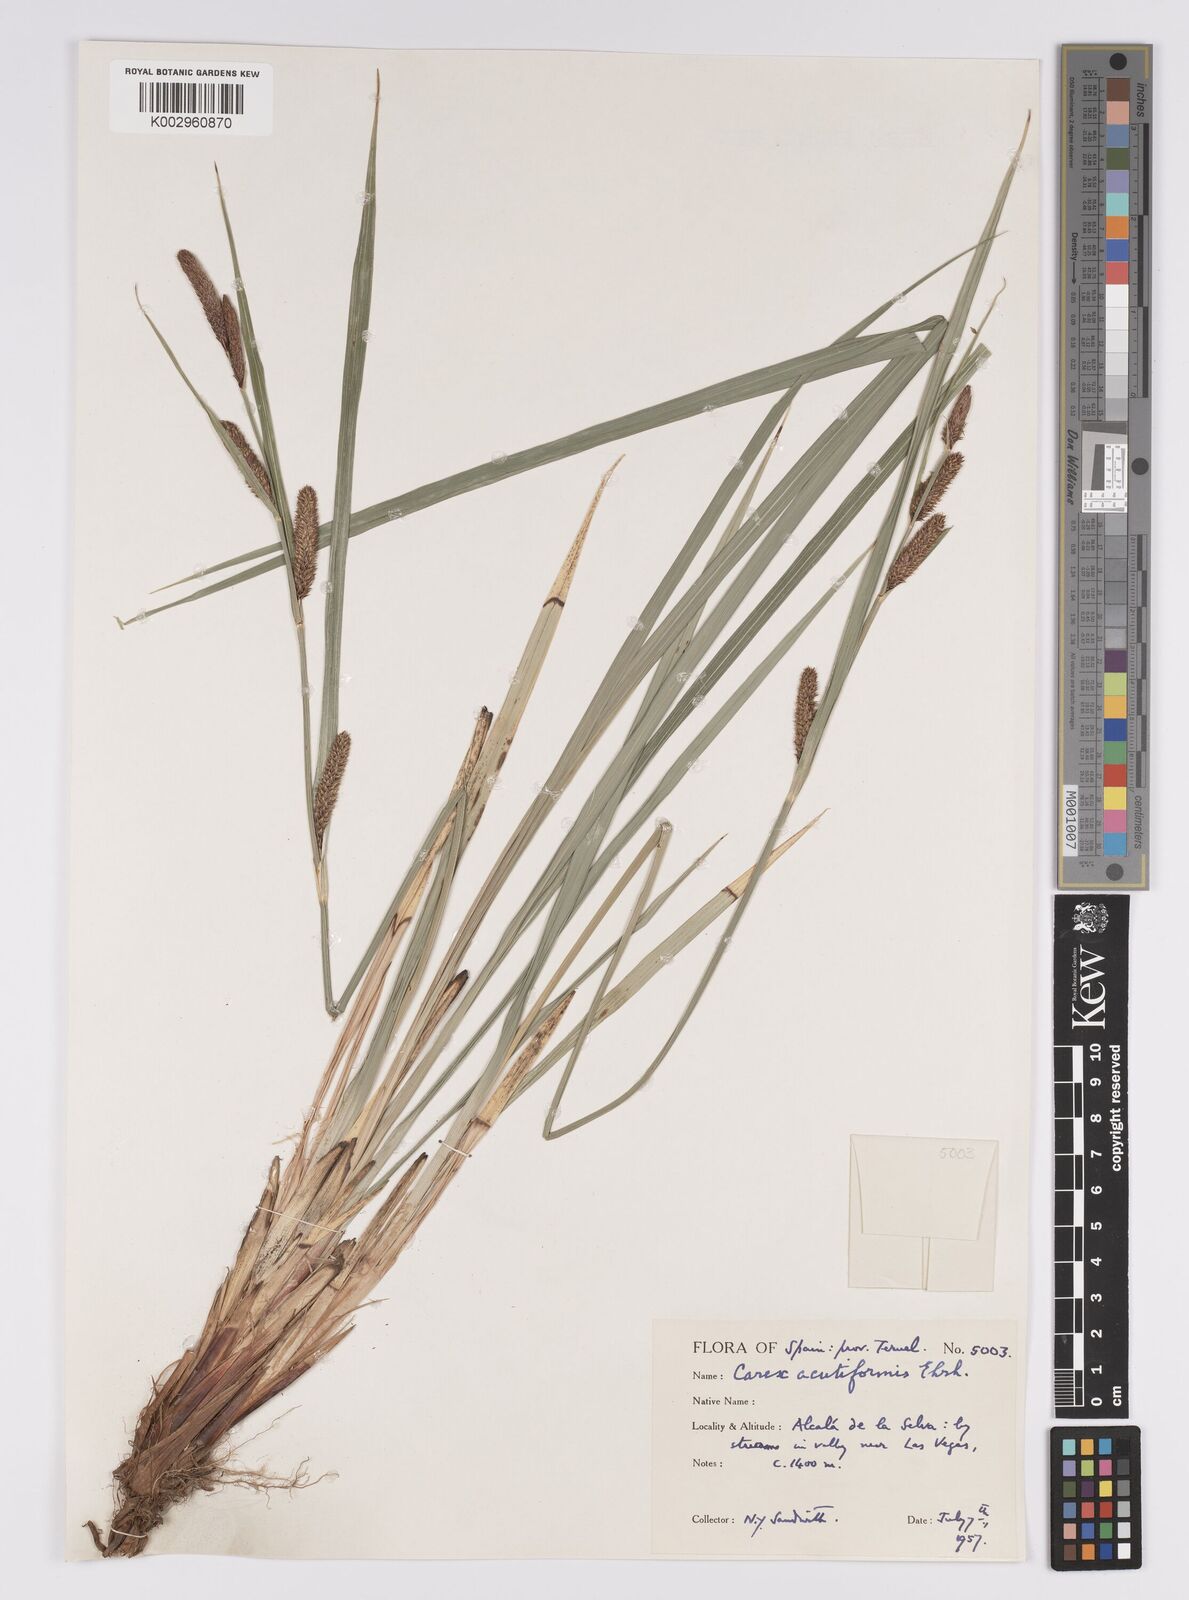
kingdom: Plantae
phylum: Tracheophyta
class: Liliopsida
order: Poales
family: Cyperaceae
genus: Carex
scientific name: Carex acutiformis
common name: Lesser pond-sedge
